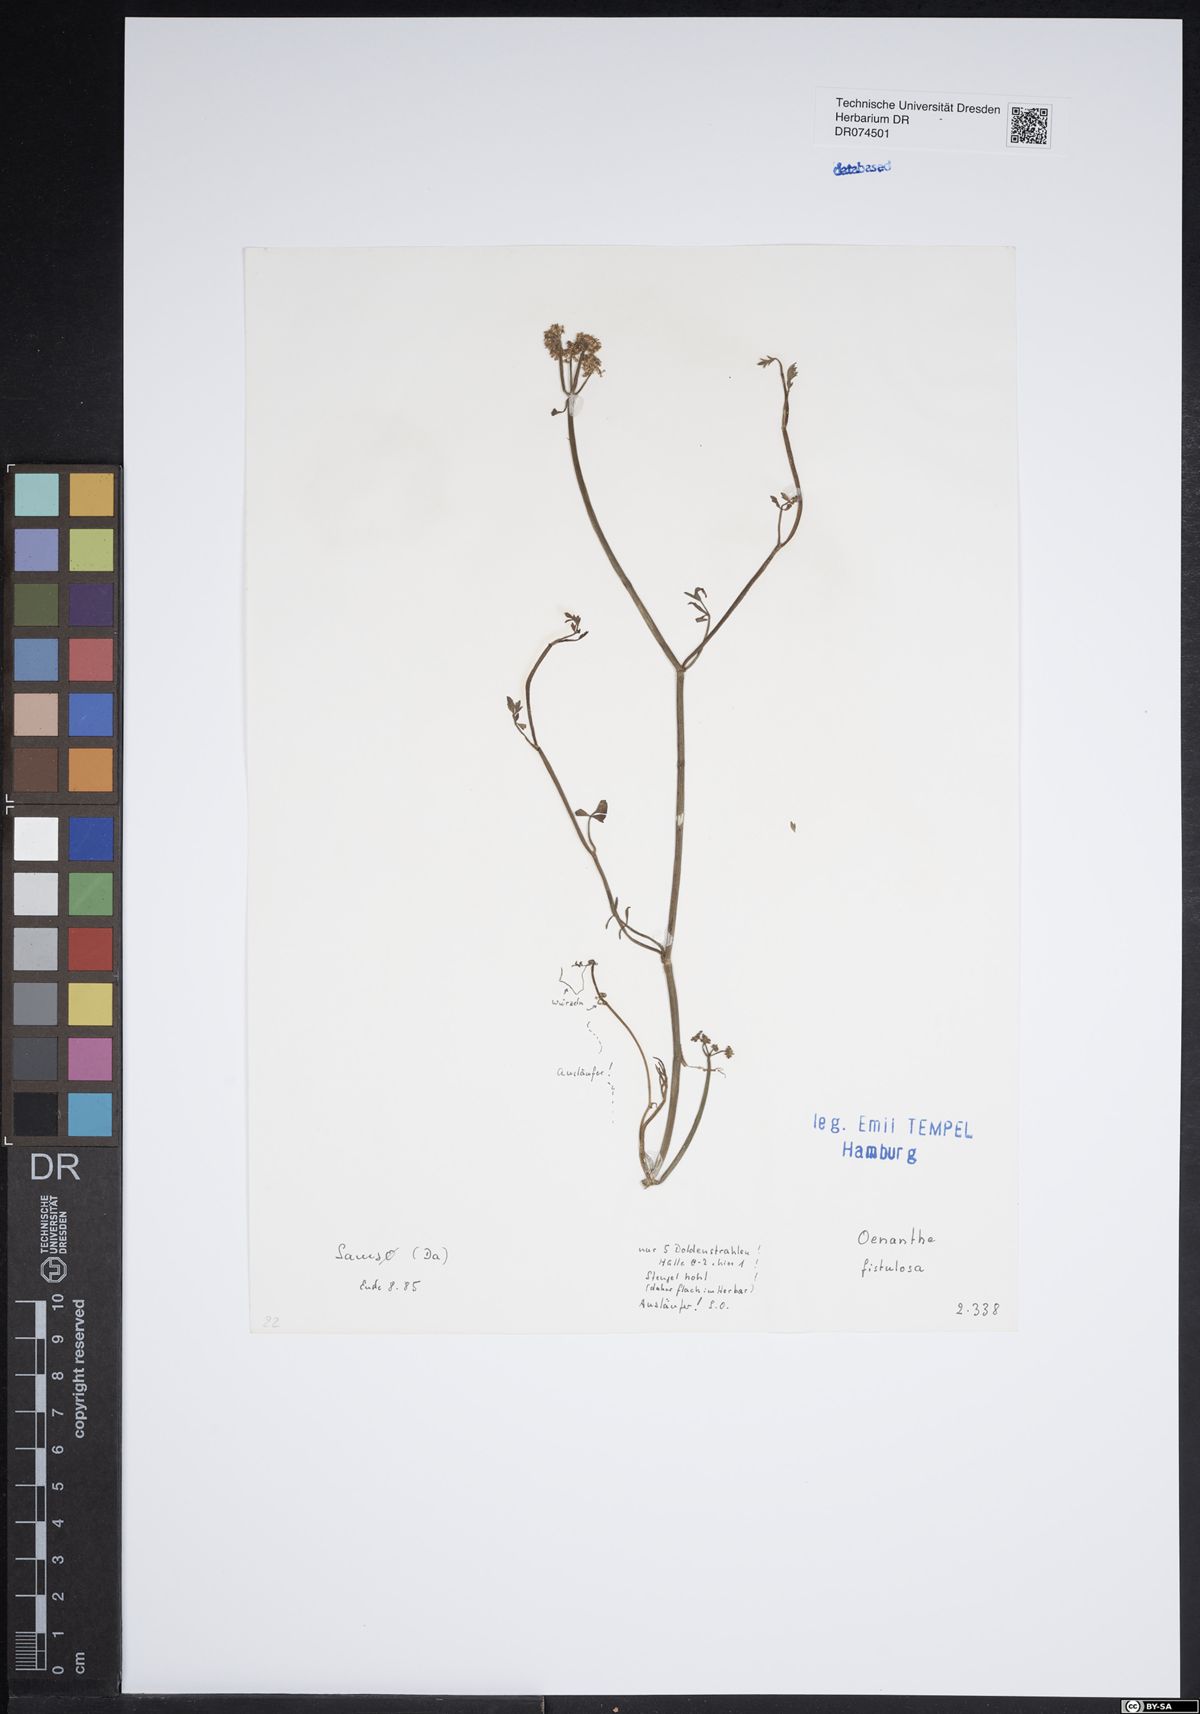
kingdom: Plantae
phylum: Tracheophyta
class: Magnoliopsida
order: Apiales
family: Apiaceae
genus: Oenanthe
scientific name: Oenanthe fistulosa
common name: Tubular water-dropwort
